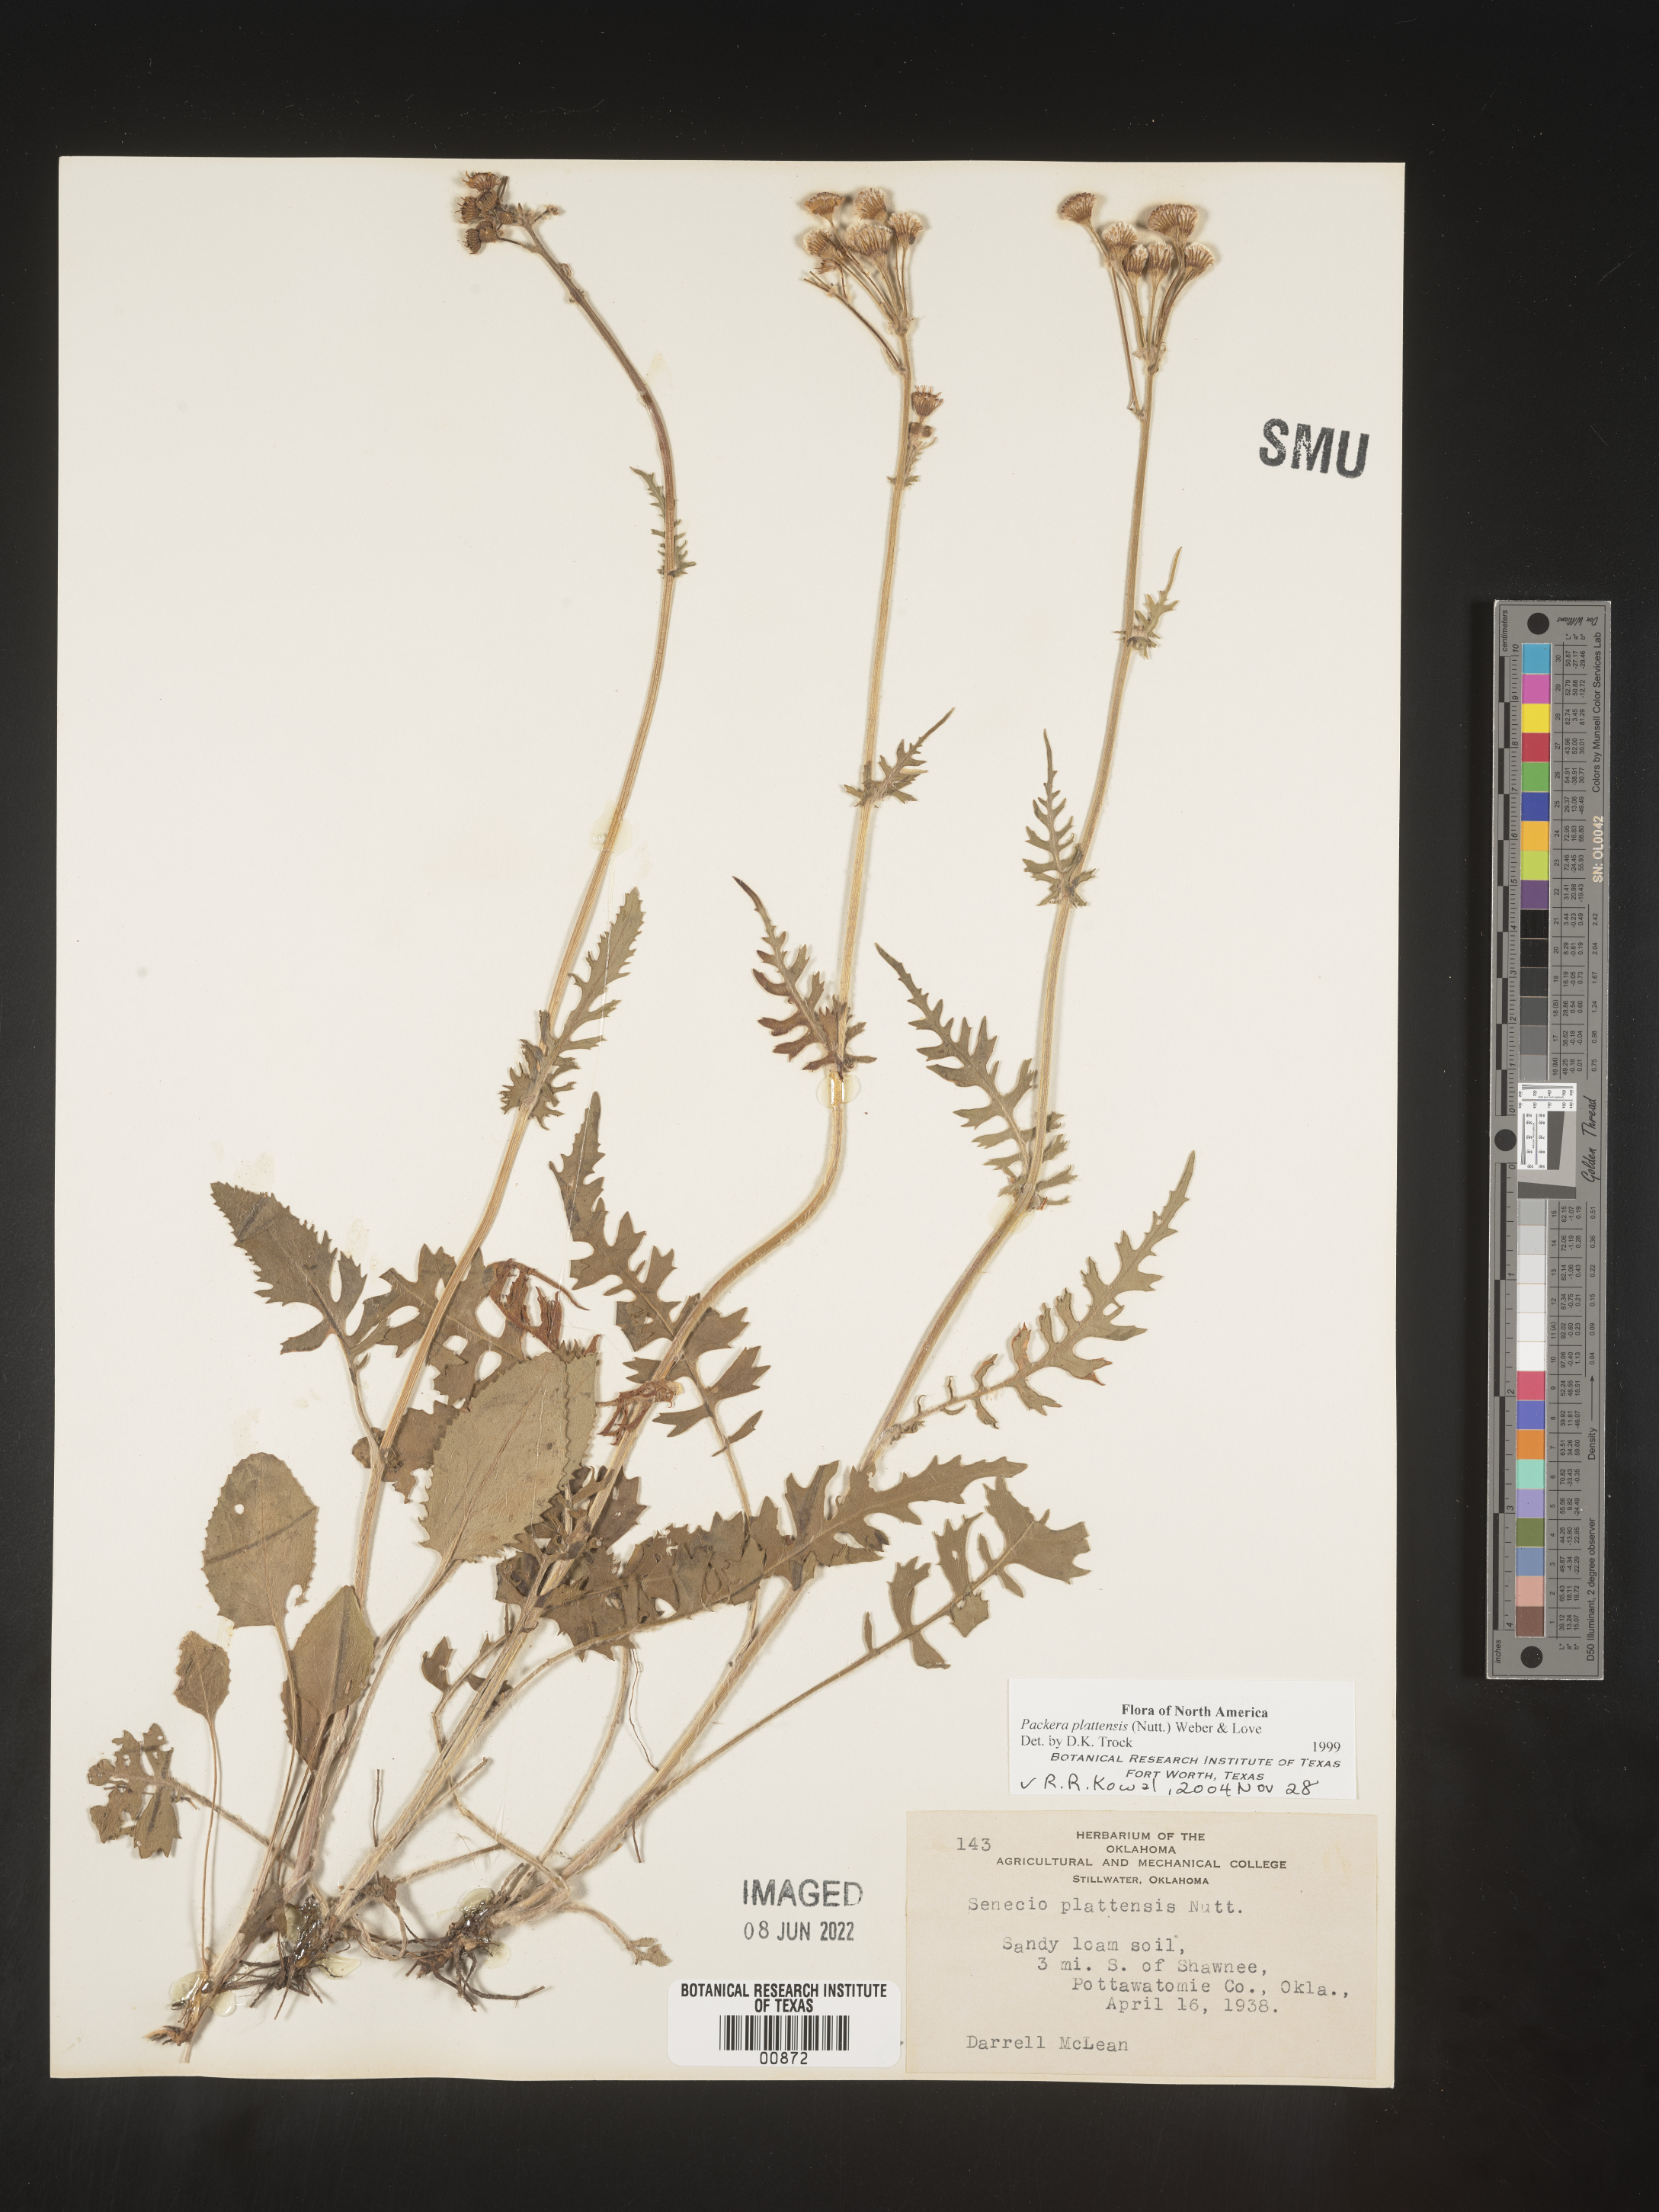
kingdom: Plantae
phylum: Tracheophyta
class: Magnoliopsida
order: Asterales
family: Asteraceae
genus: Packera
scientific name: Packera plattensis
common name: Prairie groundsel
